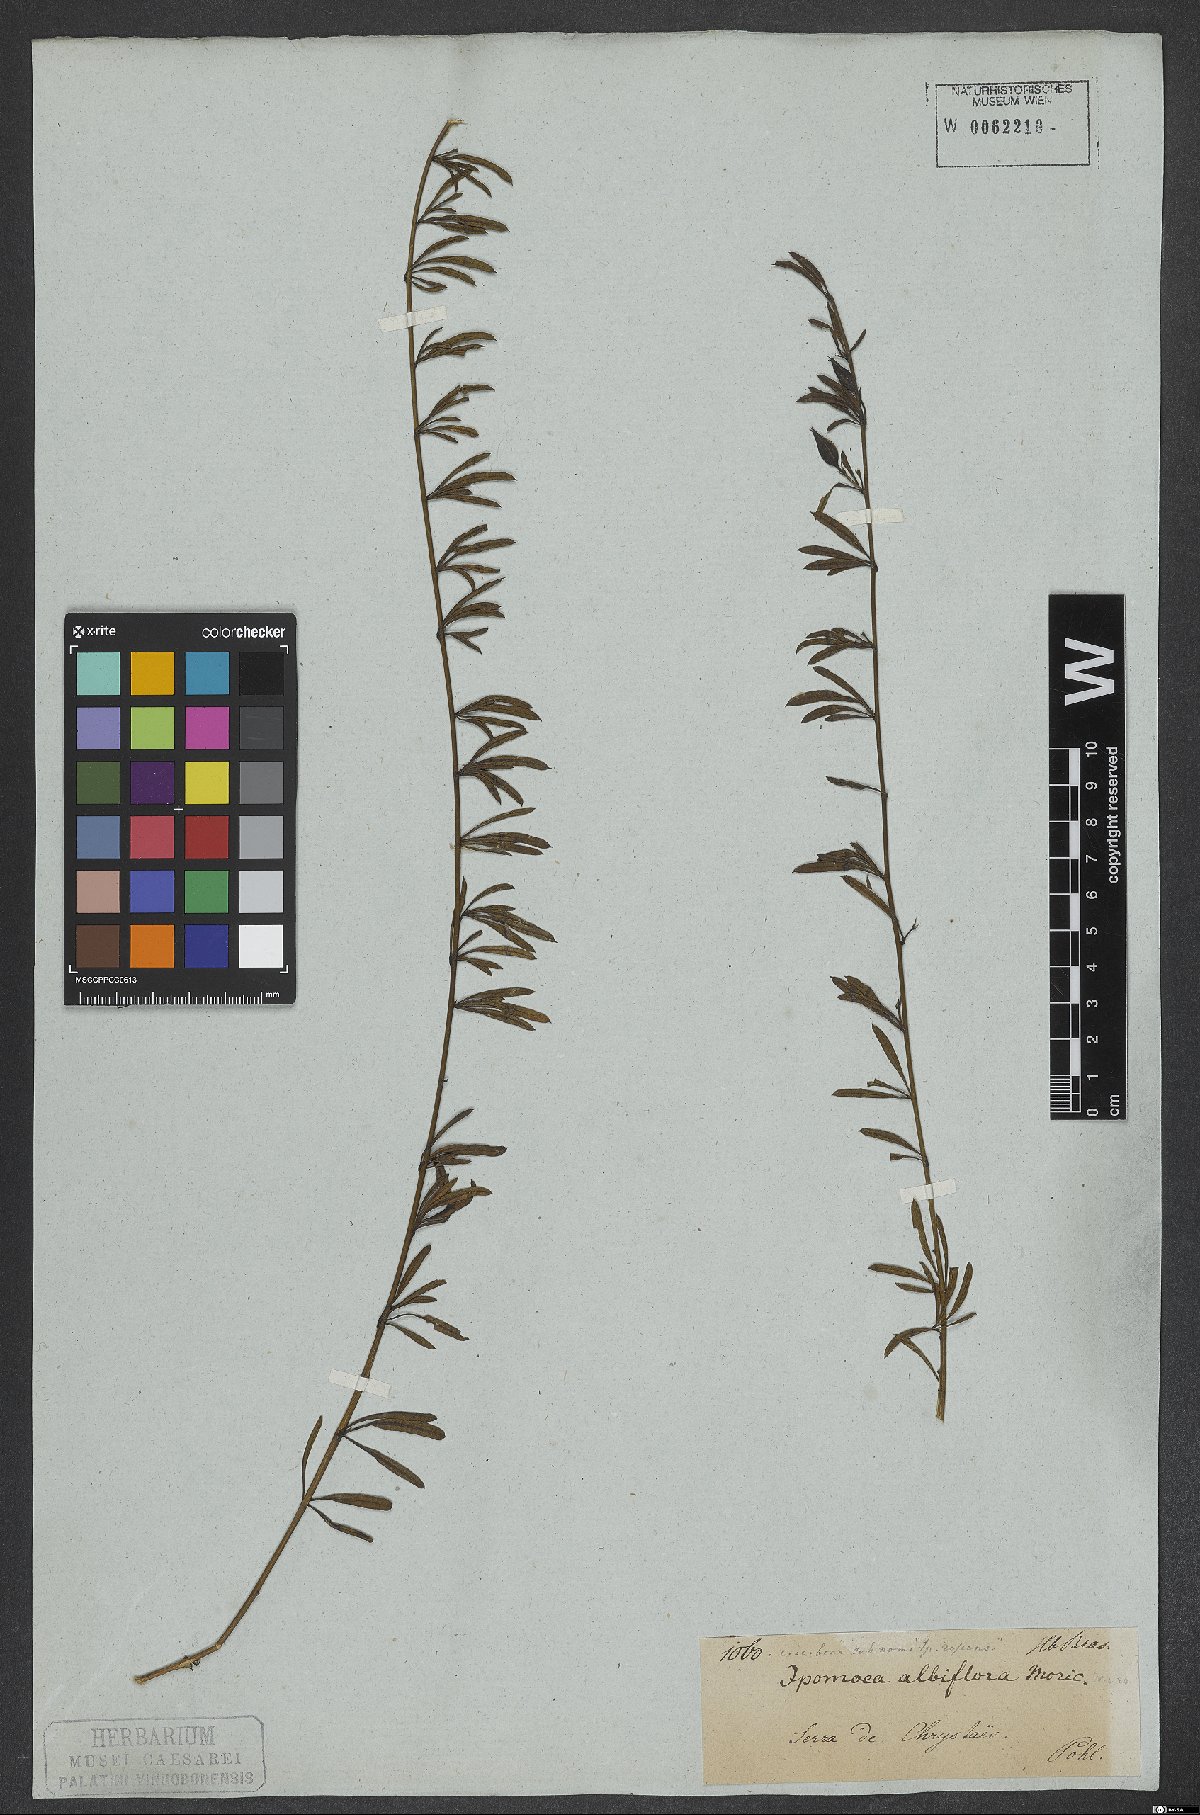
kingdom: Plantae
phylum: Tracheophyta
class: Magnoliopsida
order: Solanales
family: Convolvulaceae
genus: Distimake
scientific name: Distimake digitatus
